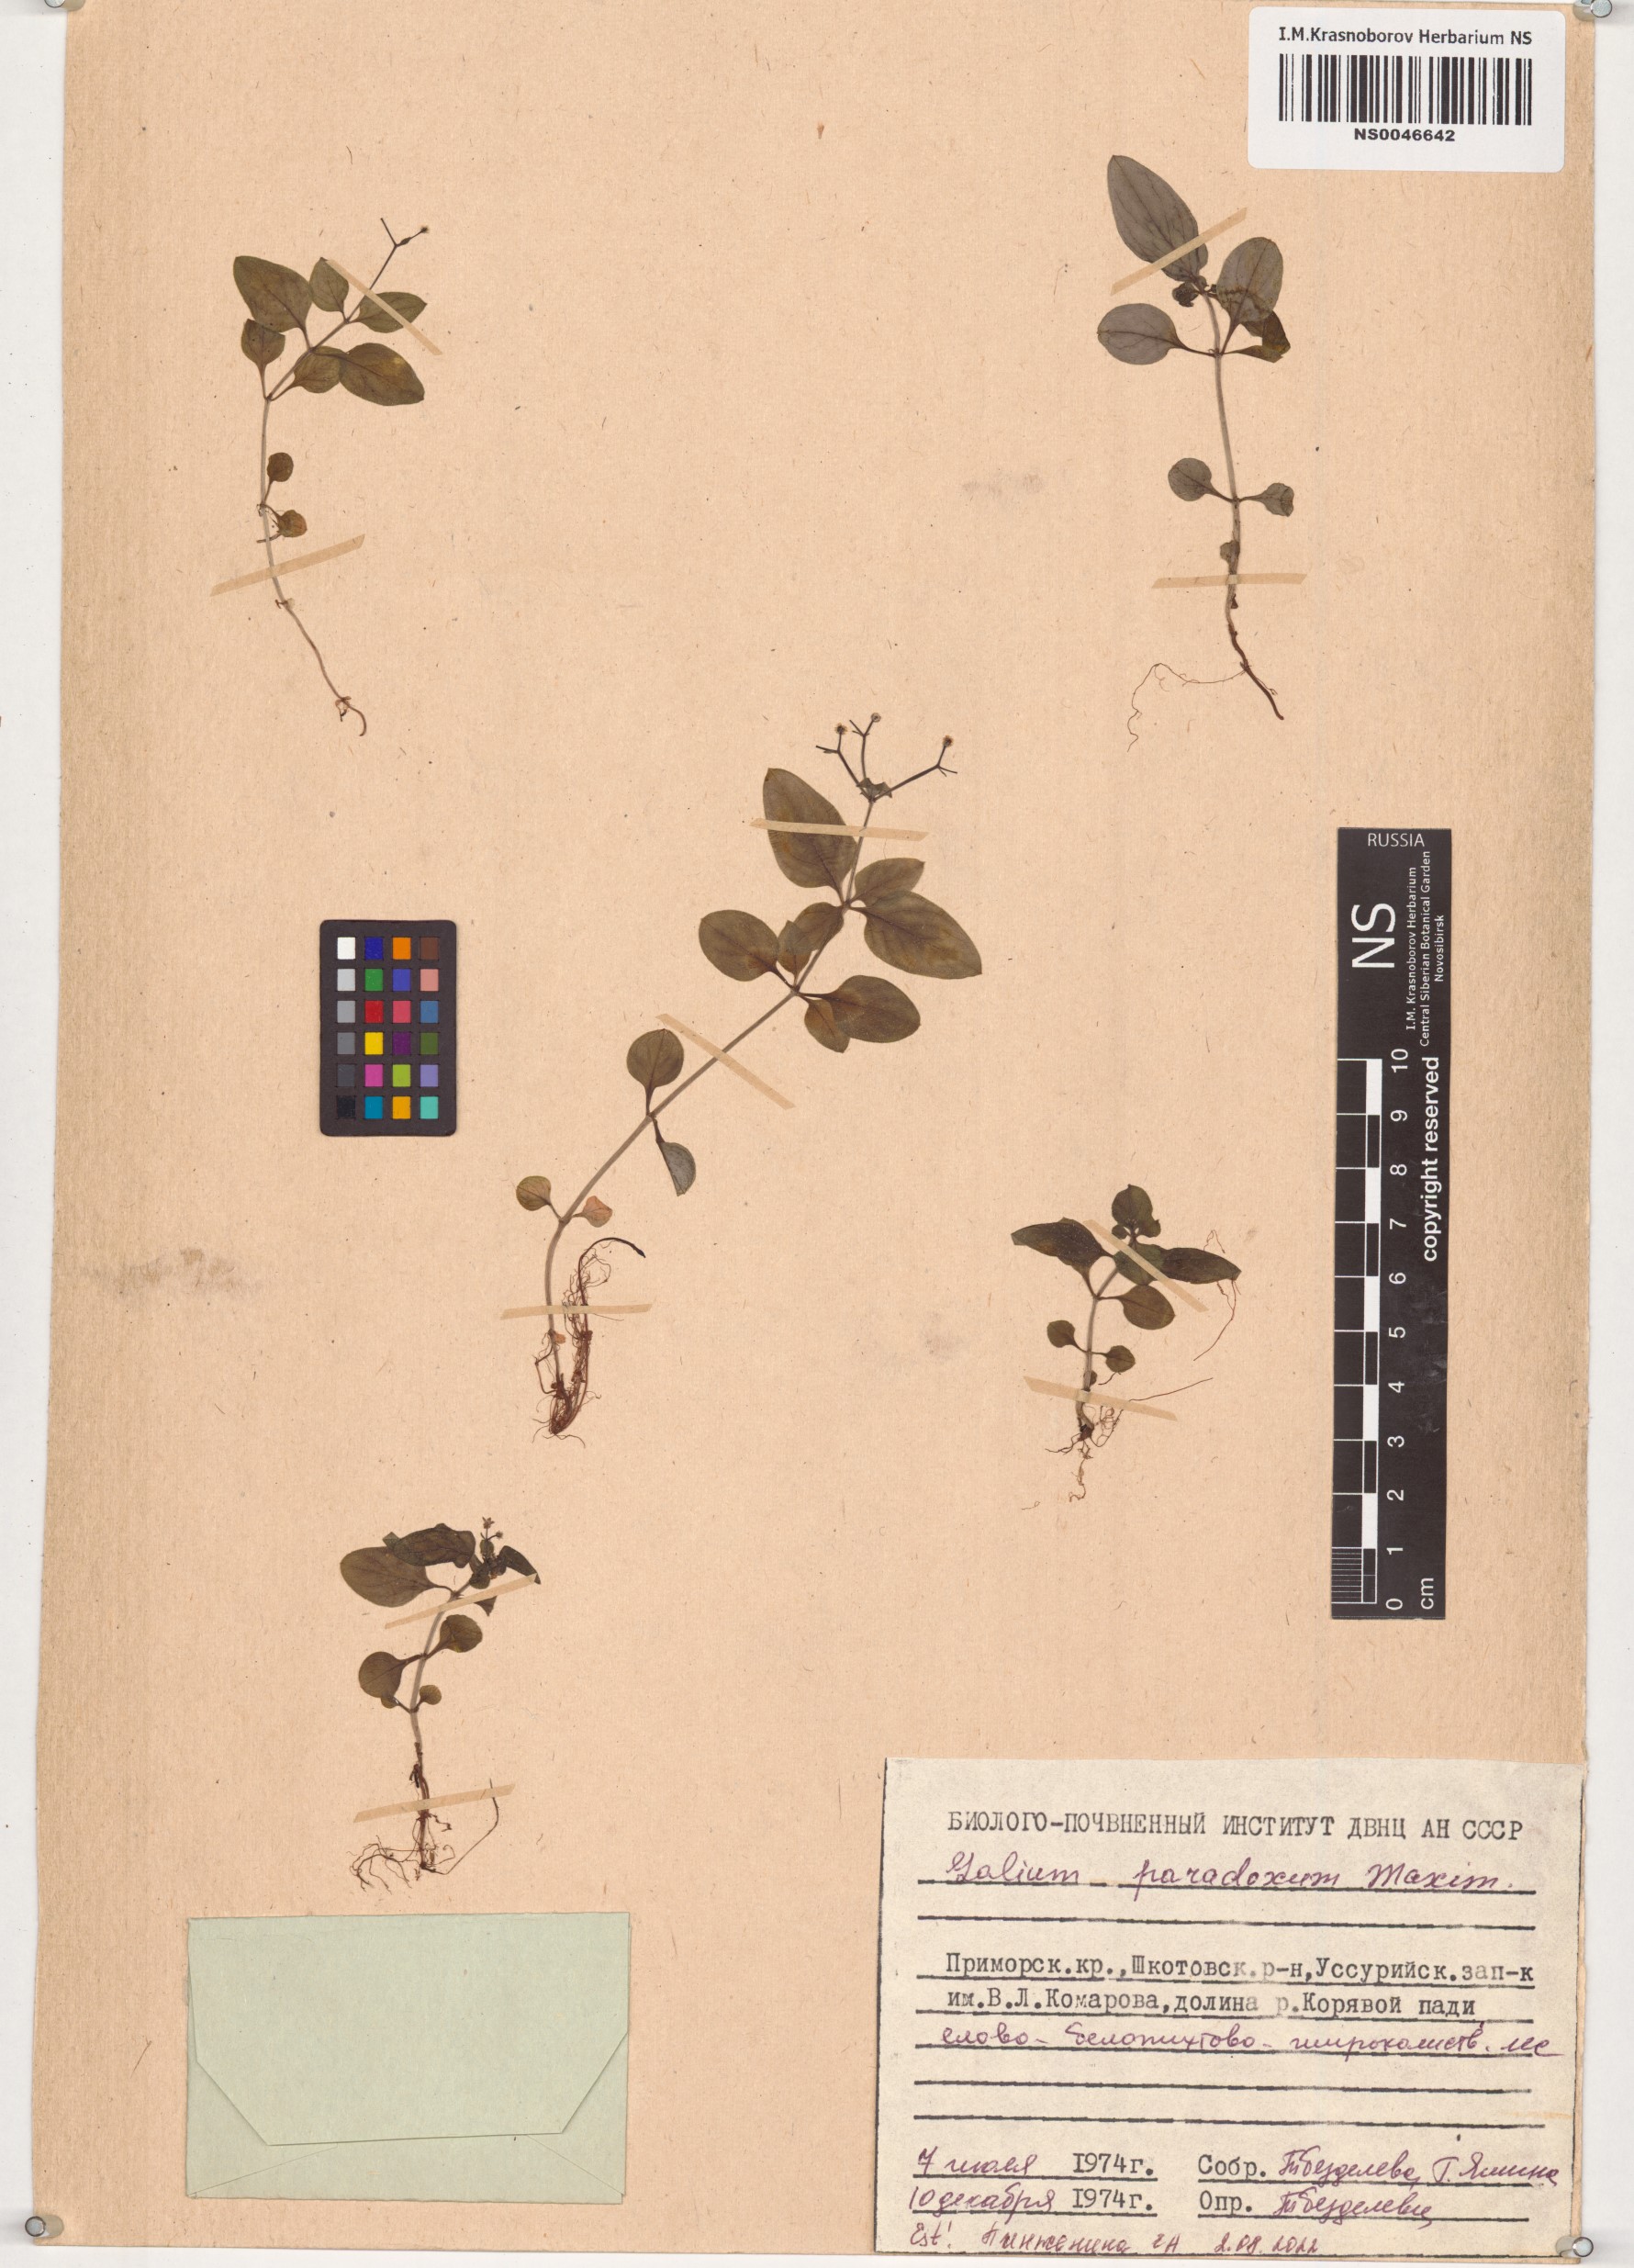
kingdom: Plantae
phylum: Tracheophyta
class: Magnoliopsida
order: Gentianales
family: Rubiaceae
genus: Pseudogalium
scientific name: Pseudogalium paradoxum
